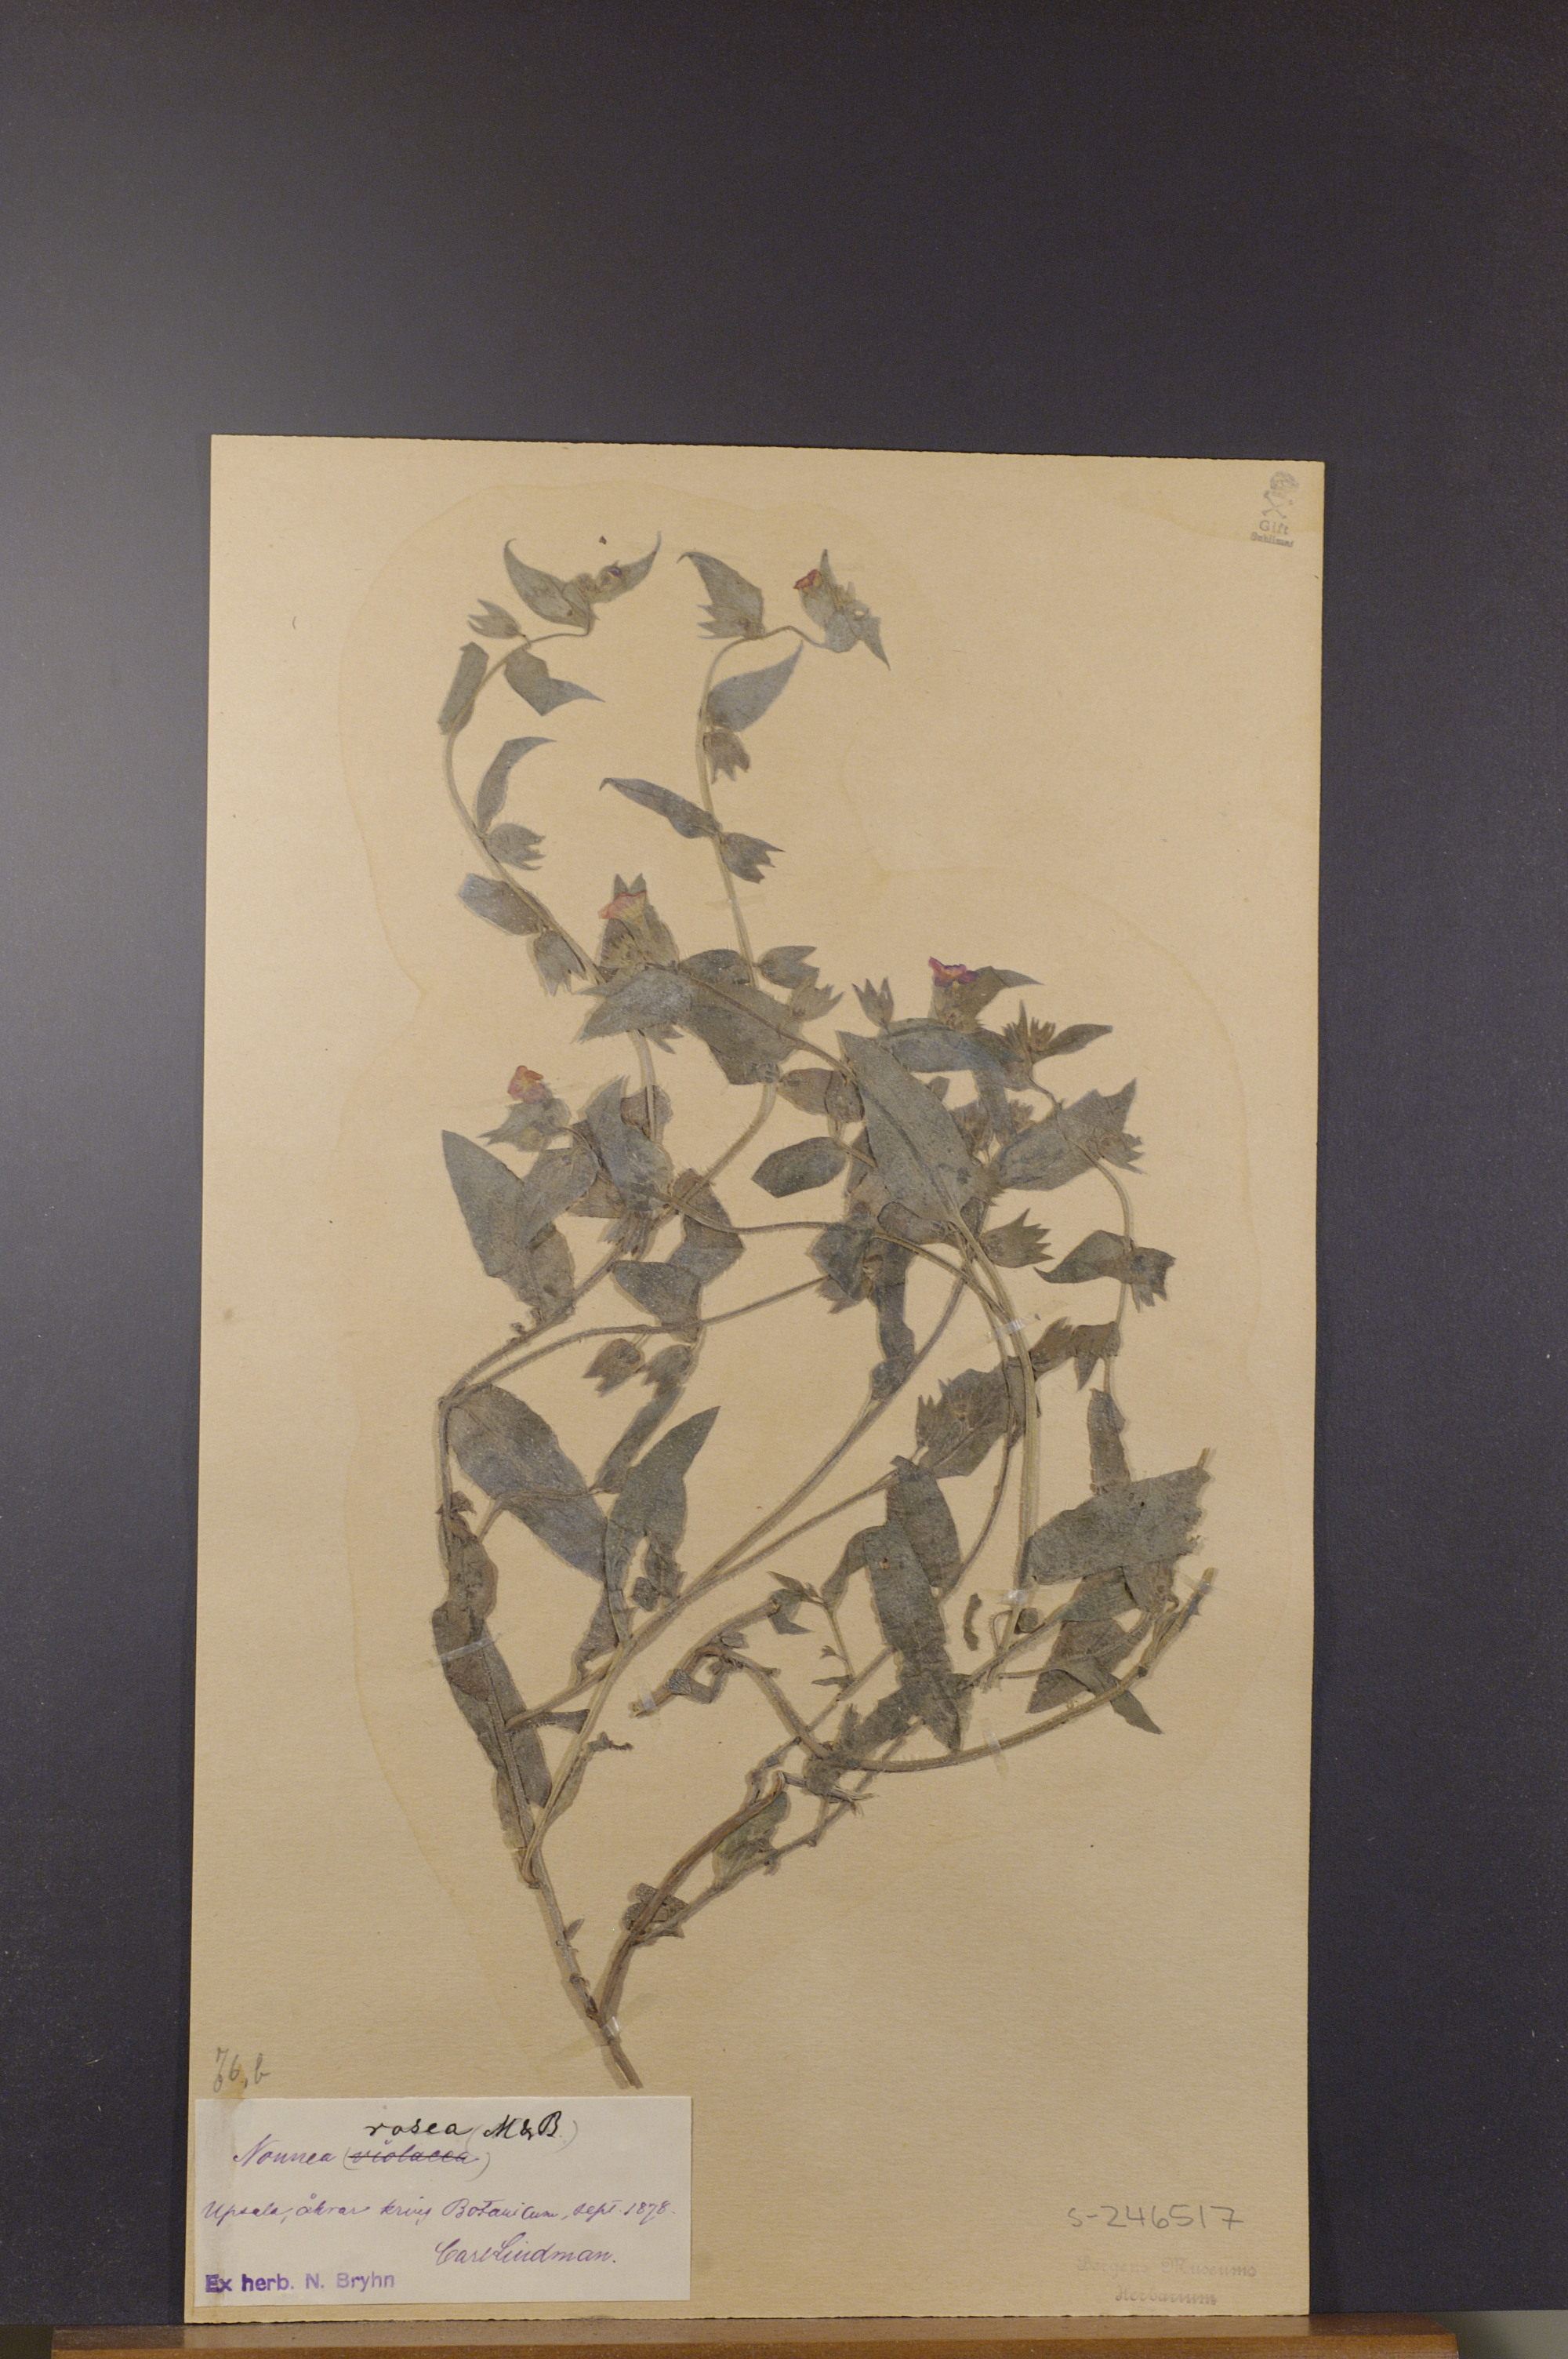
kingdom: Plantae
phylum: Tracheophyta
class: Magnoliopsida
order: Boraginales
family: Boraginaceae
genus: Nonea
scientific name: Nonea versicolor
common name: Varied monkswort
